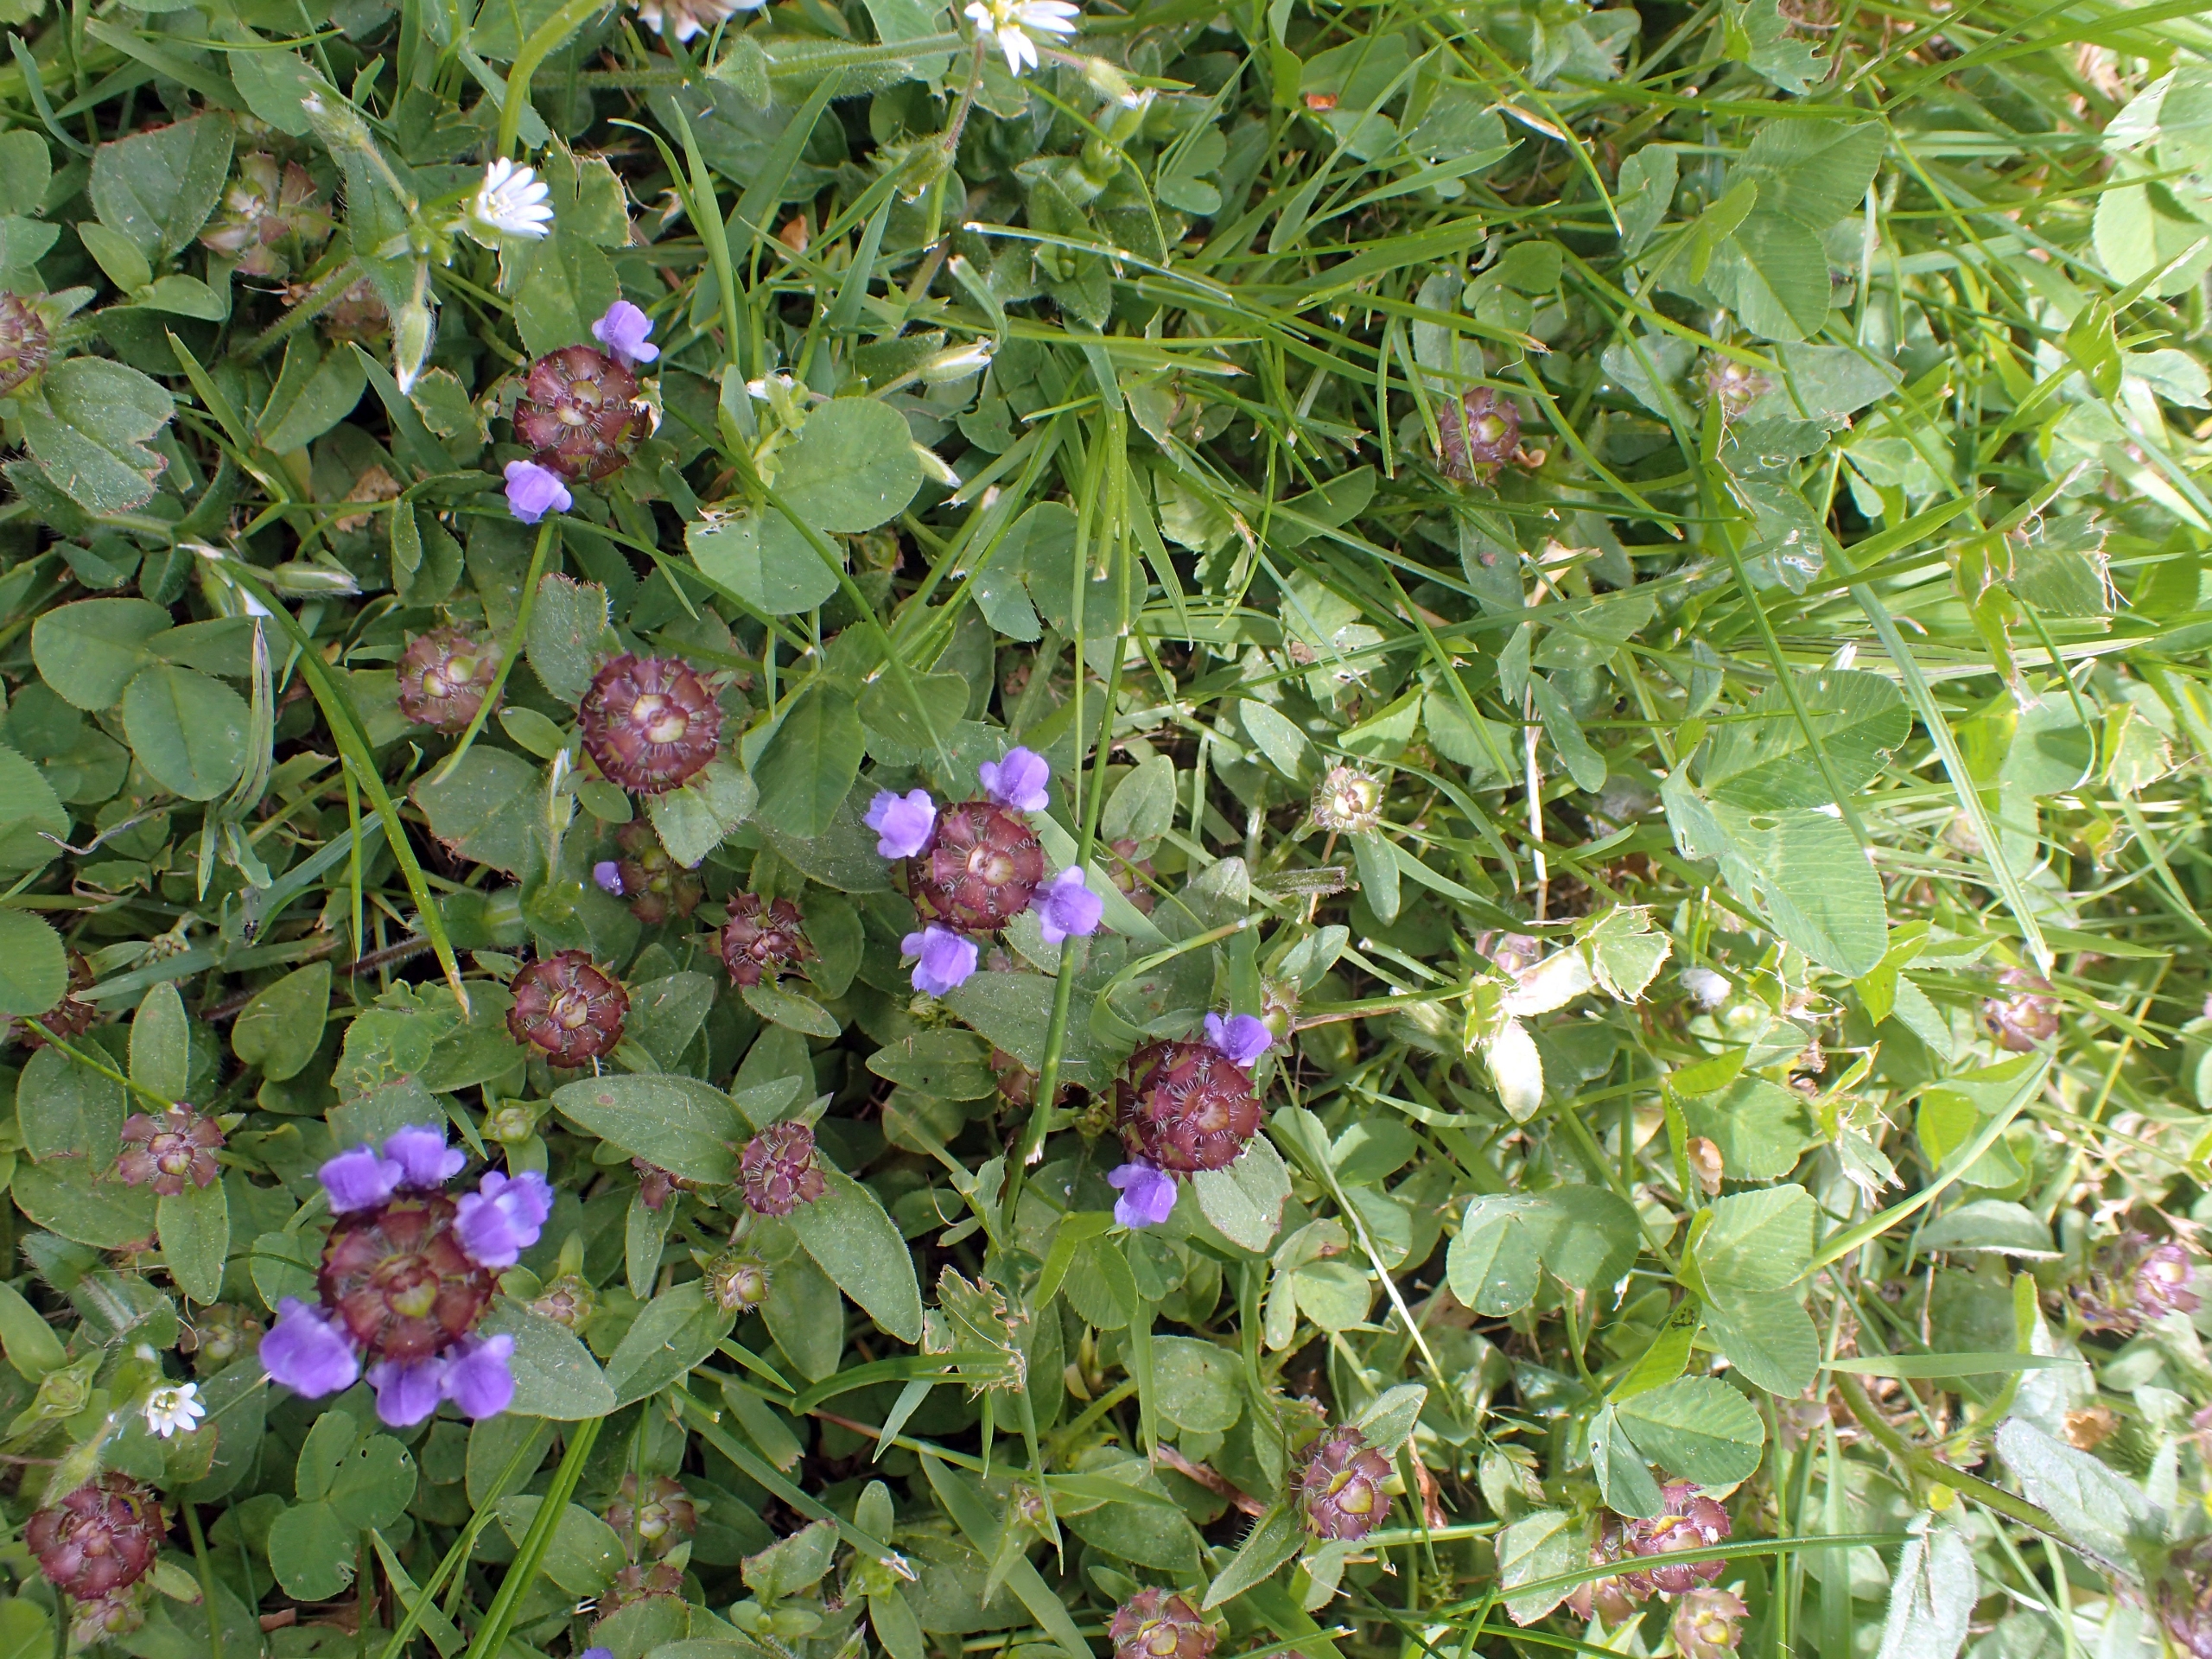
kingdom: Plantae
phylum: Tracheophyta
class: Magnoliopsida
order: Lamiales
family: Lamiaceae
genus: Prunella
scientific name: Prunella vulgaris
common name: Almindelig brunelle
